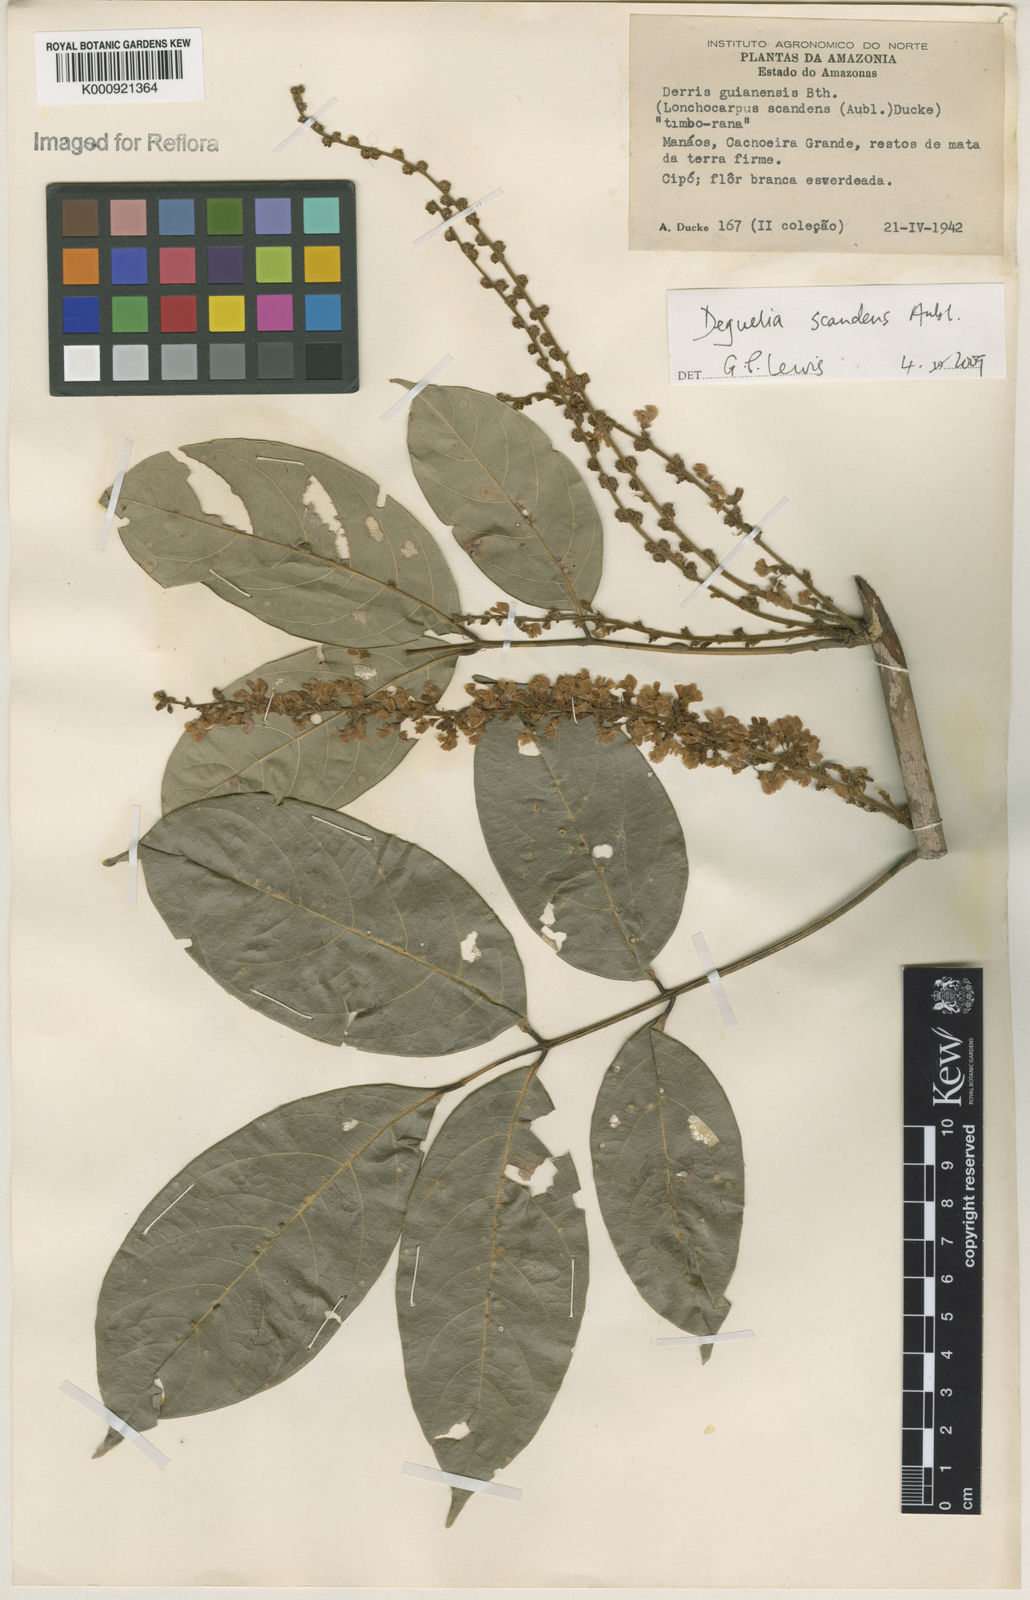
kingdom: Plantae
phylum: Tracheophyta
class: Magnoliopsida
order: Fabales
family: Fabaceae
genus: Deguelia
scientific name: Deguelia scandens
